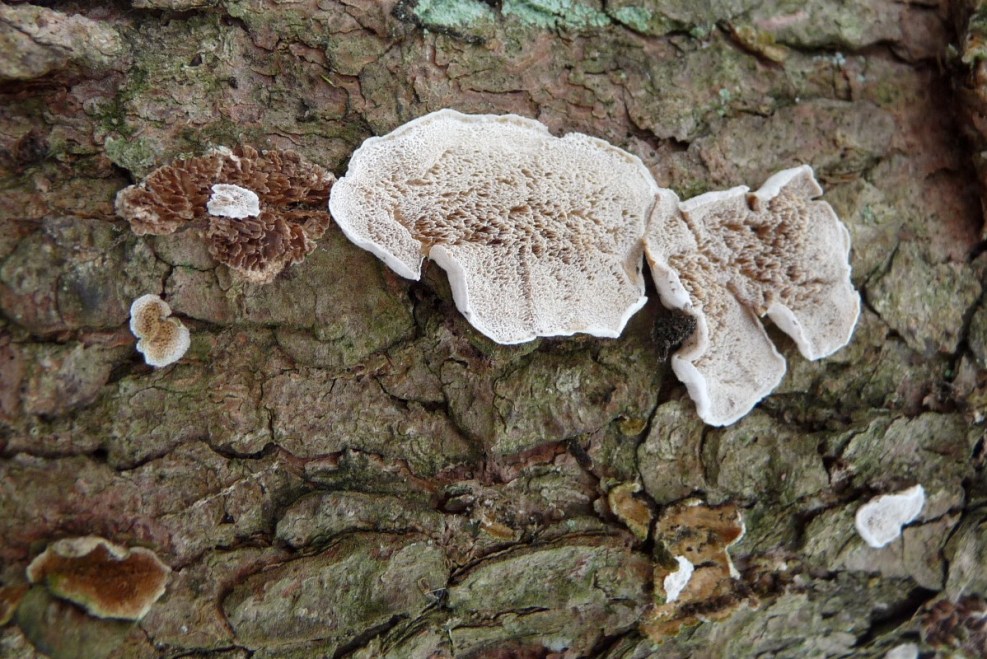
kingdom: Fungi
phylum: Basidiomycota
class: Agaricomycetes
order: Polyporales
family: Incrustoporiaceae
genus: Skeletocutis
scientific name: Skeletocutis carneogrisea
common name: rødgrå krystalporesvamp
